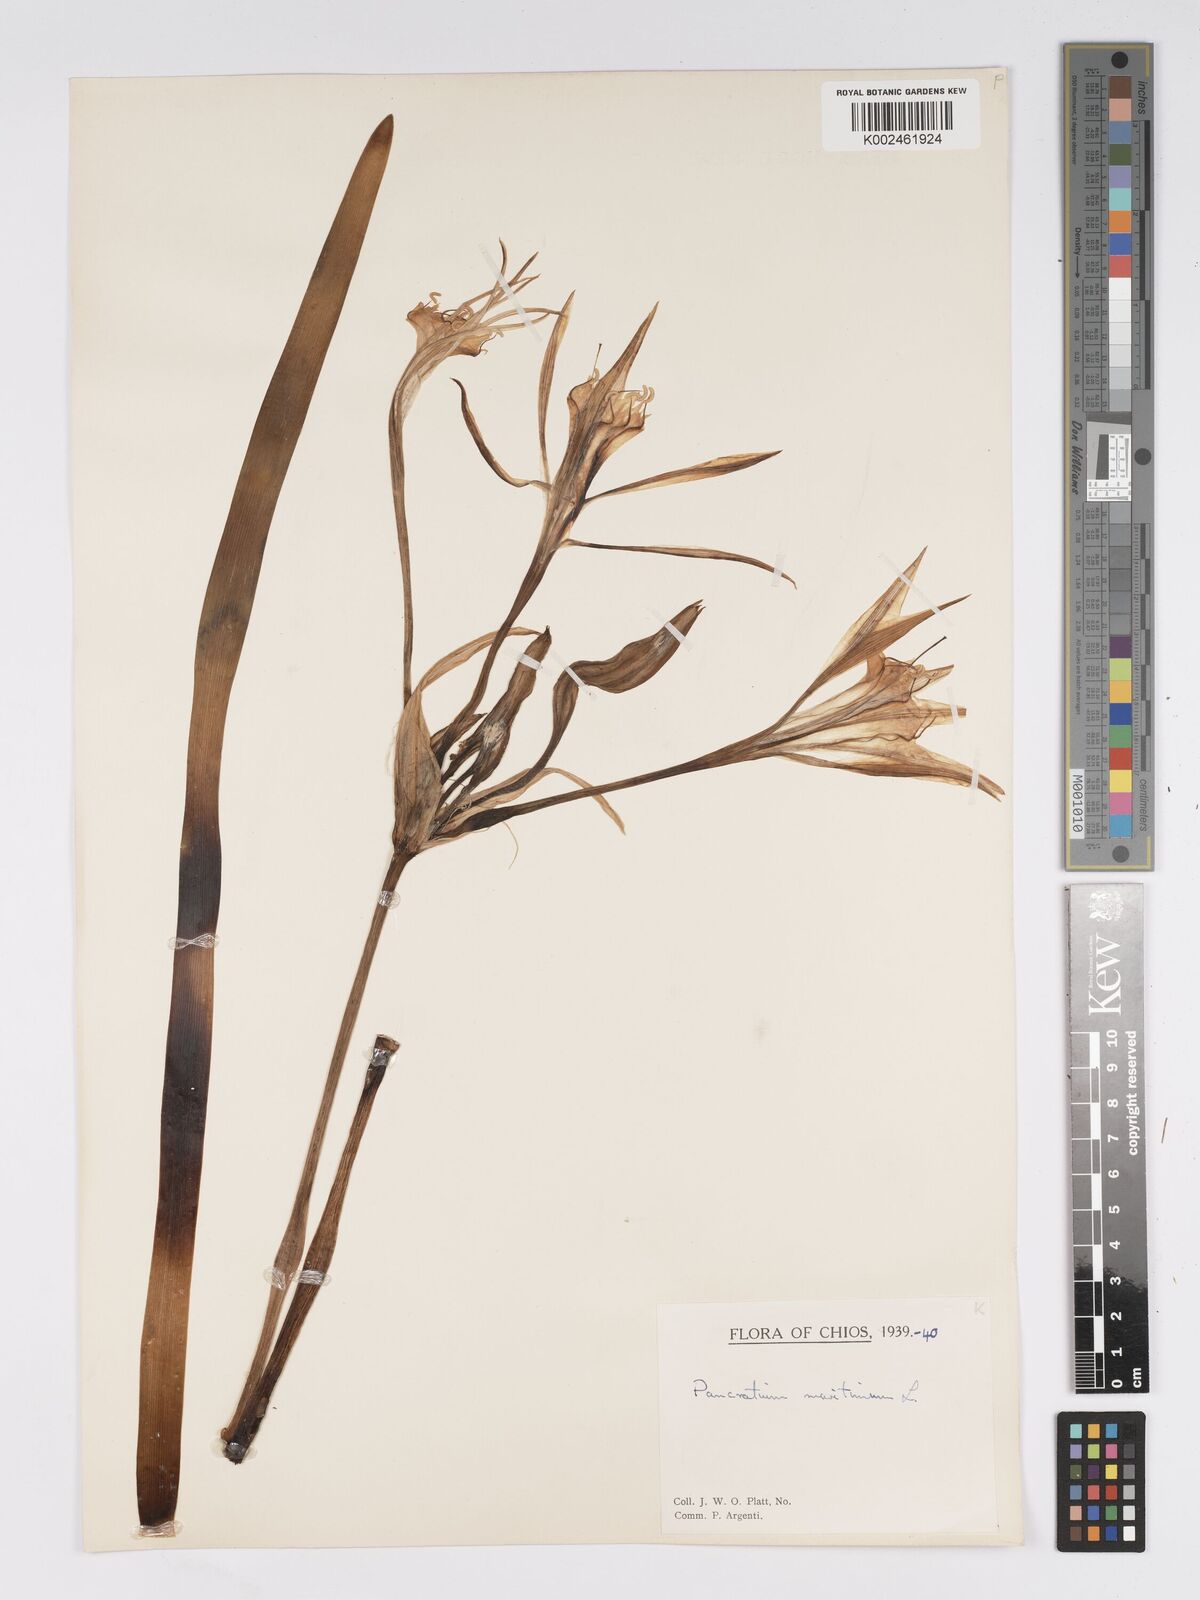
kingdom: Plantae
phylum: Tracheophyta
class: Liliopsida
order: Asparagales
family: Amaryllidaceae
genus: Pancratium
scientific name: Pancratium maritimum
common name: Sea-daffodil
